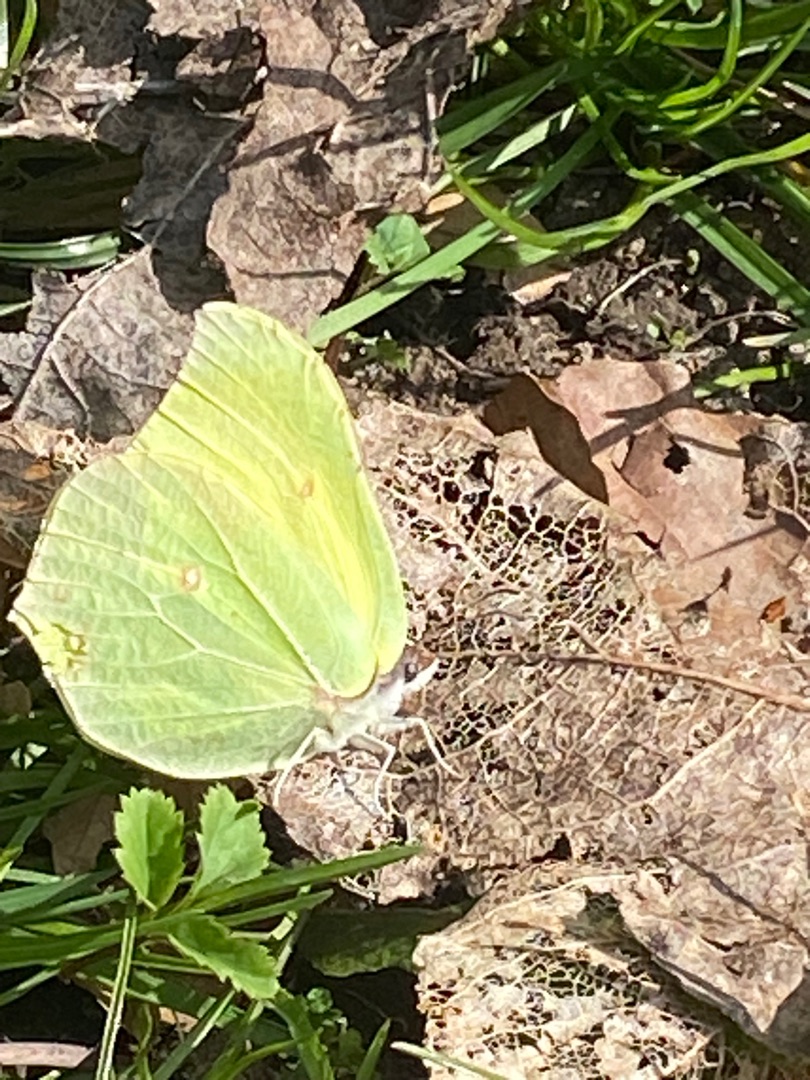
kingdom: Animalia
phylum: Arthropoda
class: Insecta
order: Lepidoptera
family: Pieridae
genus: Gonepteryx
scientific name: Gonepteryx rhamni
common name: Citronsommerfugl
